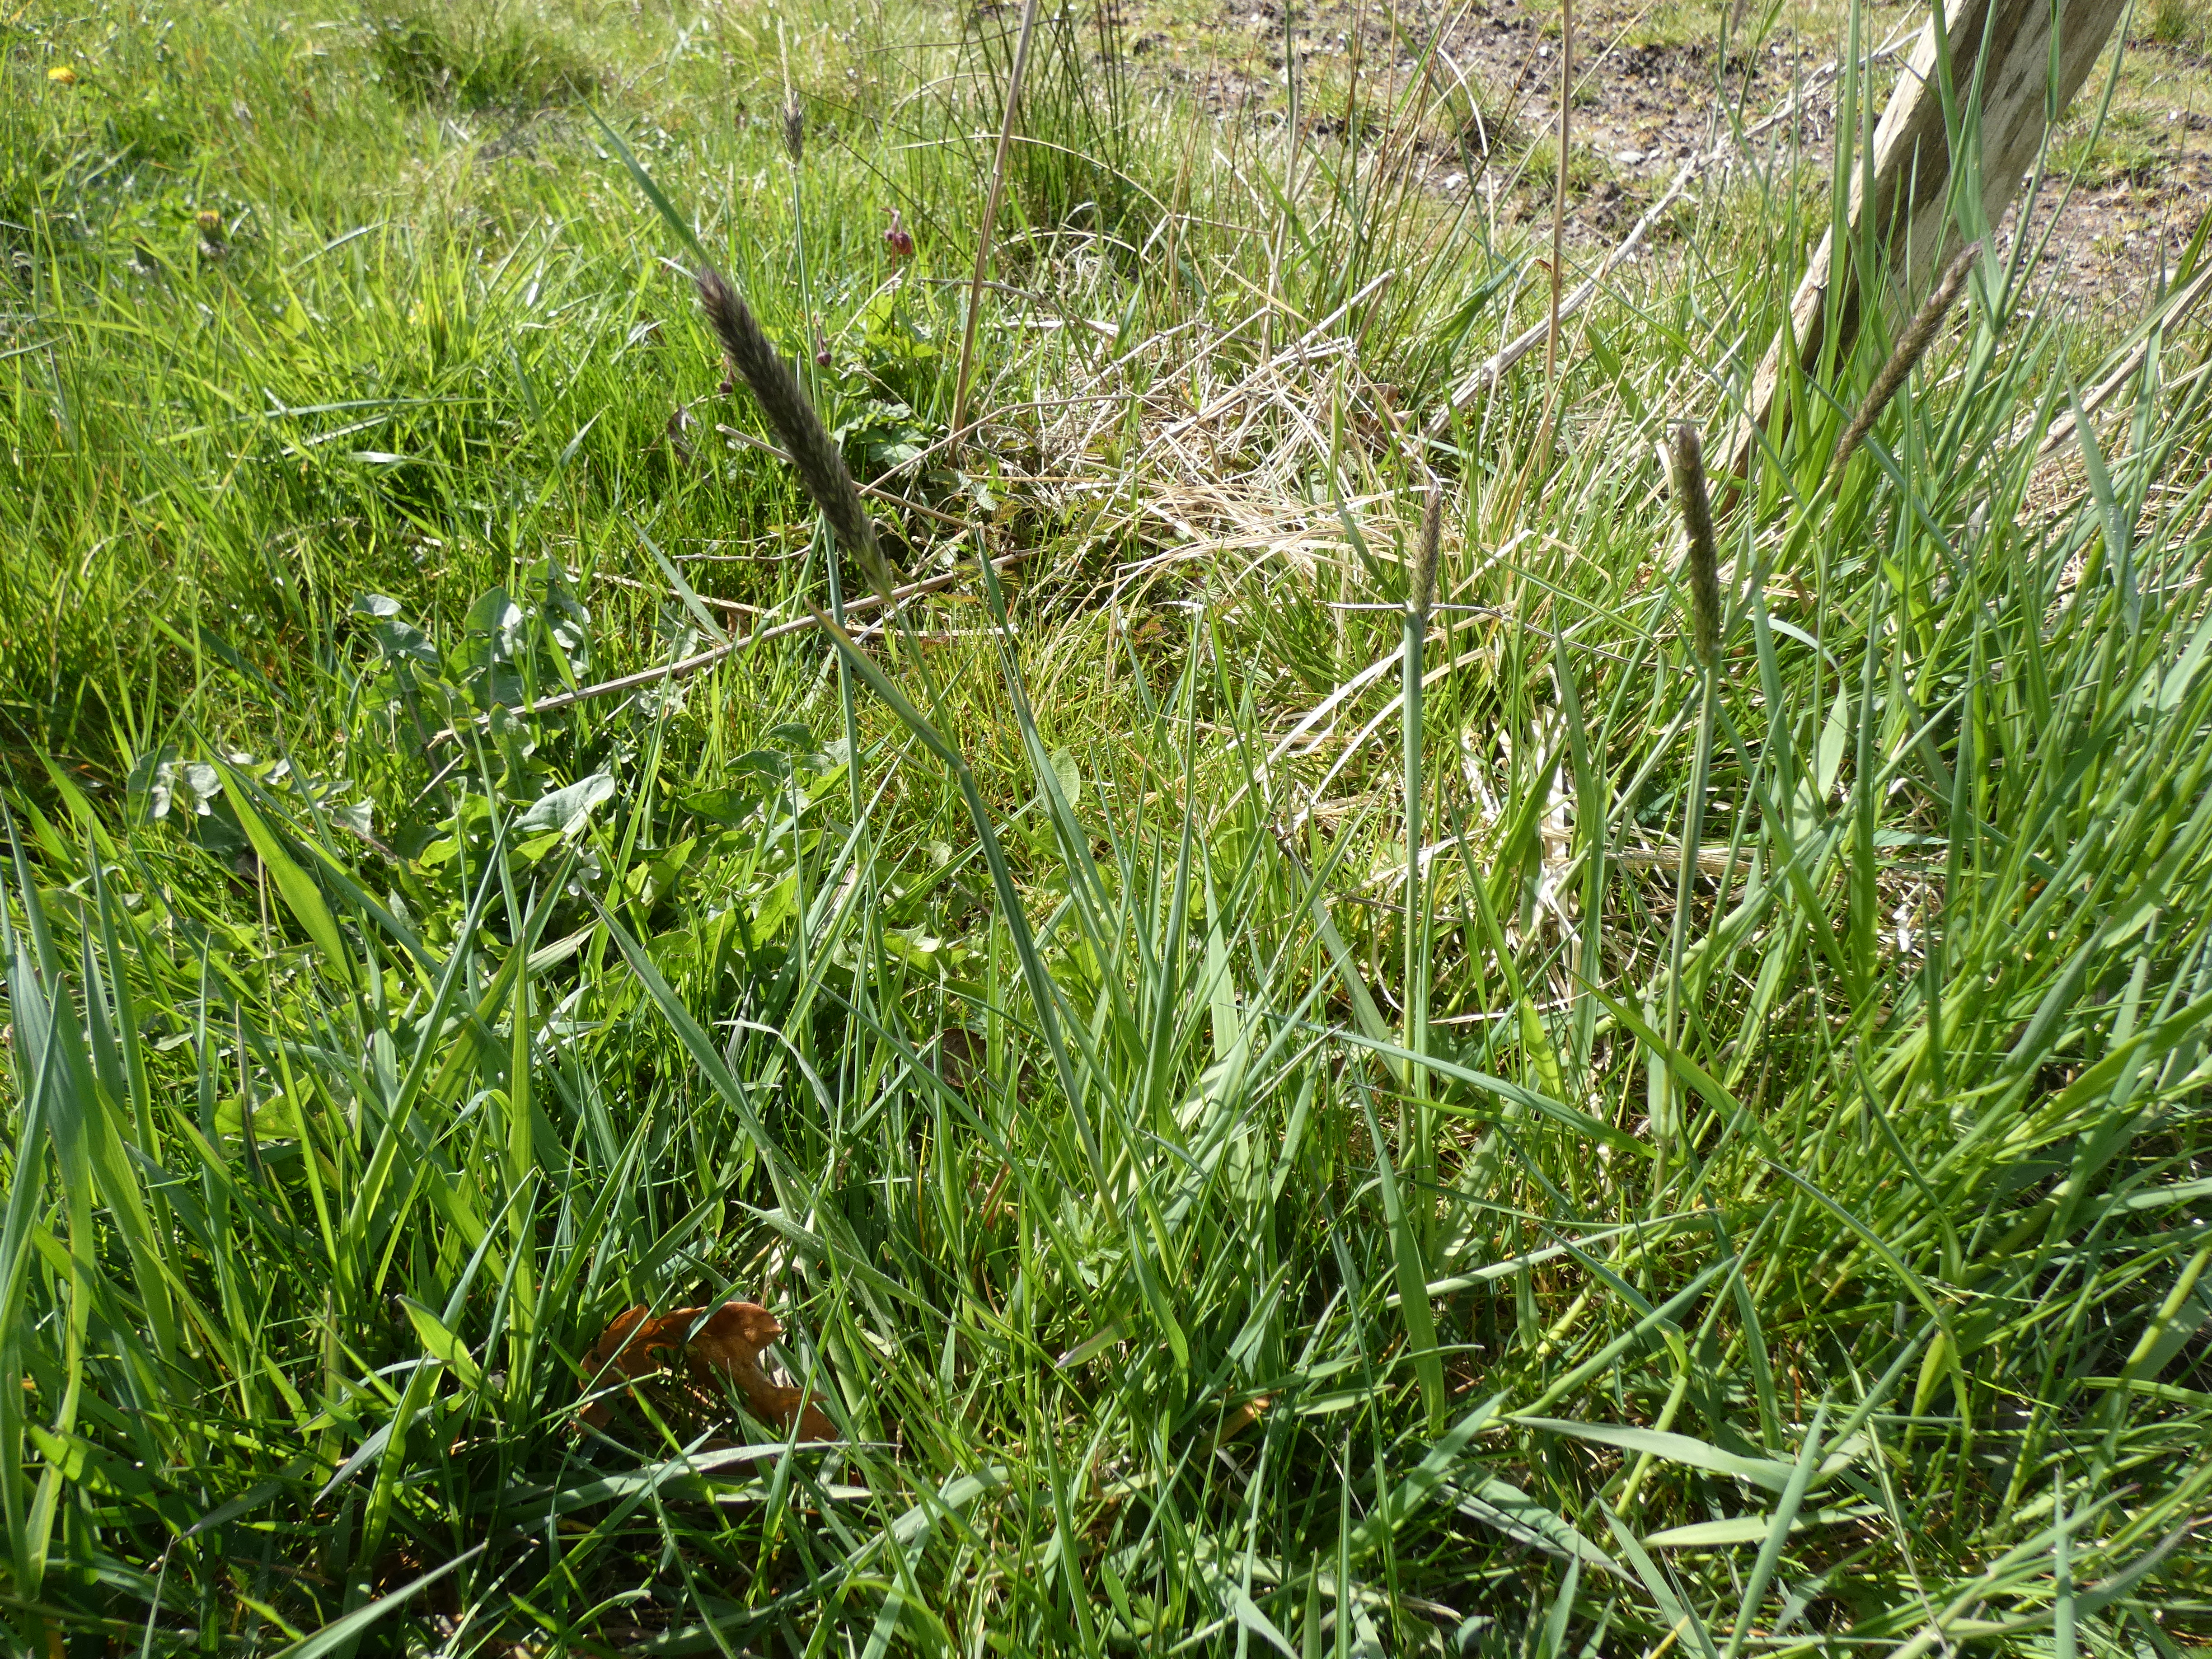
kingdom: Plantae
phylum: Tracheophyta
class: Liliopsida
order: Poales
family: Poaceae
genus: Alopecurus
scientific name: Alopecurus pratensis
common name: Eng-rævehale
